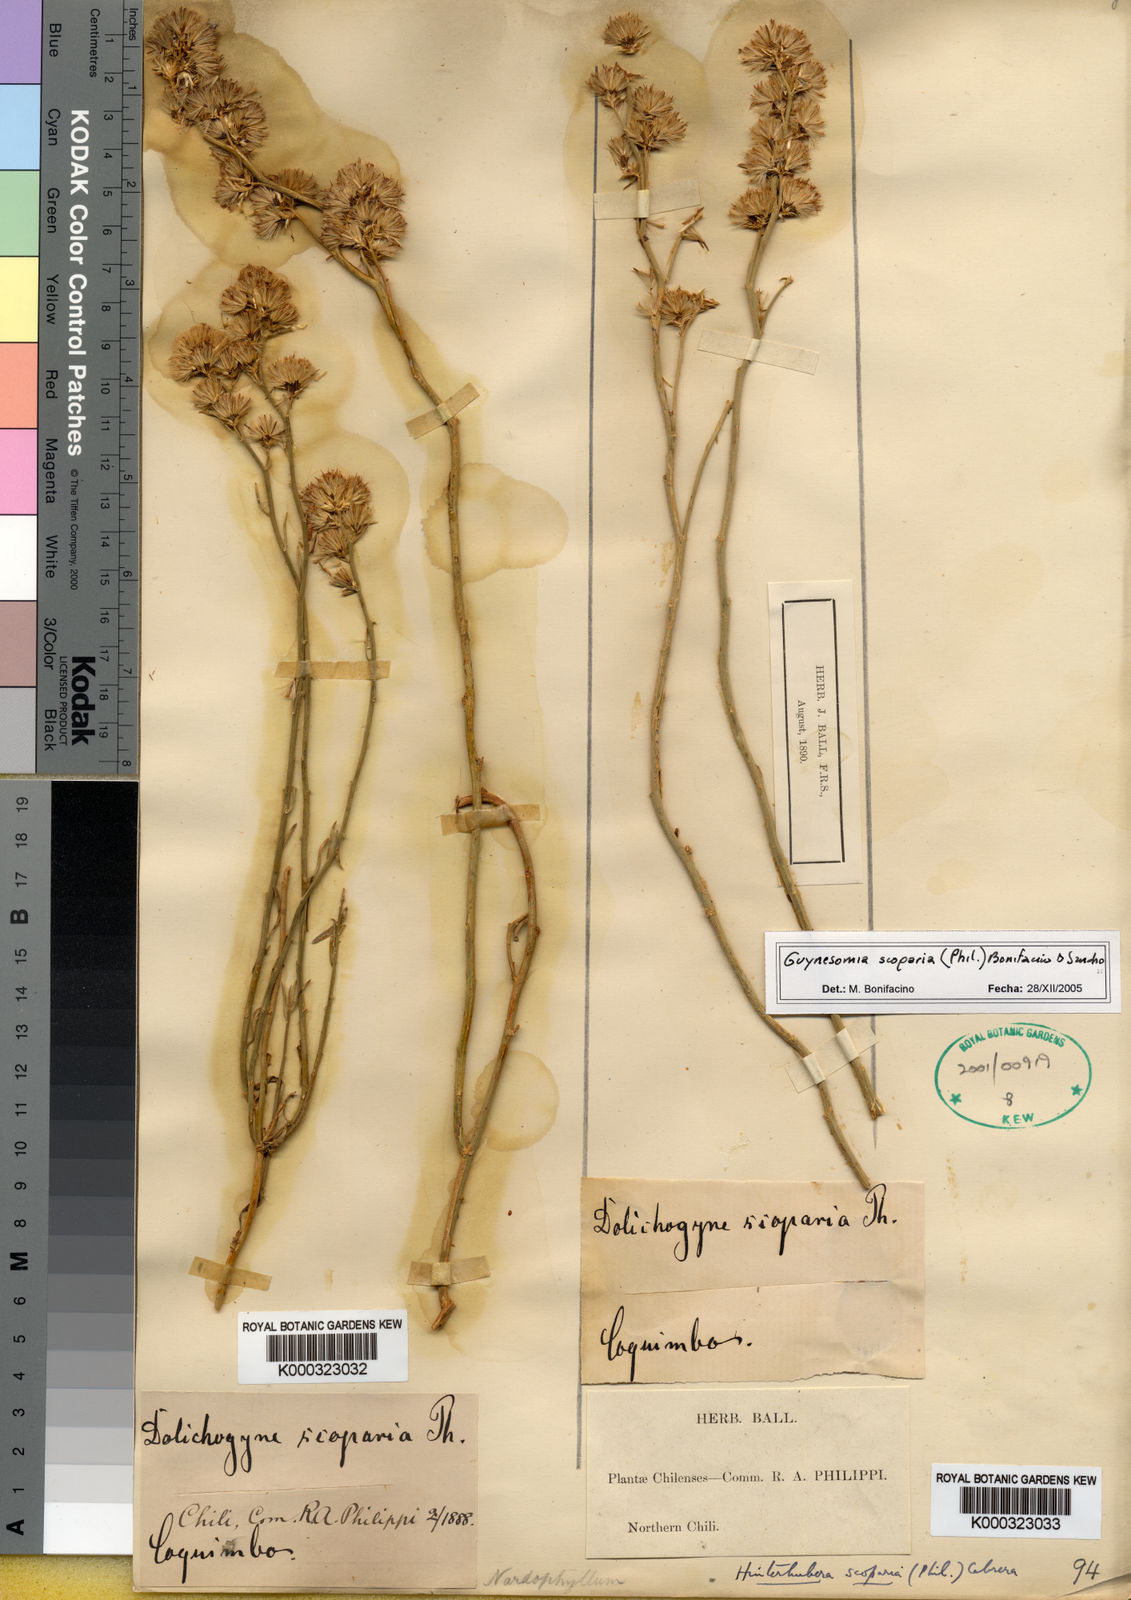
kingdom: Plantae
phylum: Tracheophyta
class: Magnoliopsida
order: Asterales
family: Asteraceae
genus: Guynesomia
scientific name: Guynesomia scoparia
